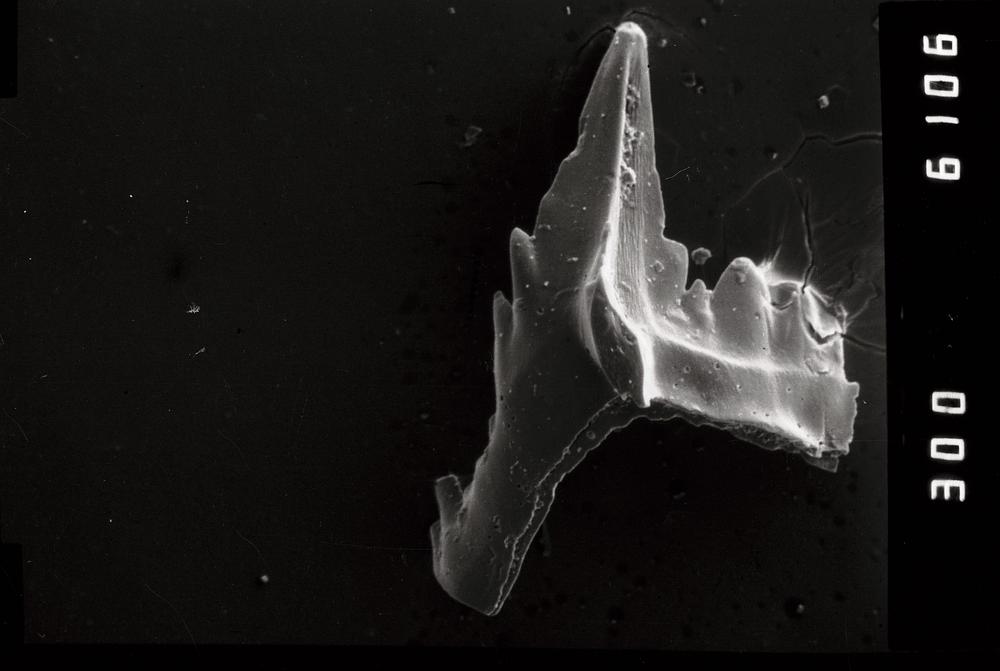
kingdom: Animalia
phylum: Chordata
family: Balognathidae
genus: Prioniodus
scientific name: Prioniodus
